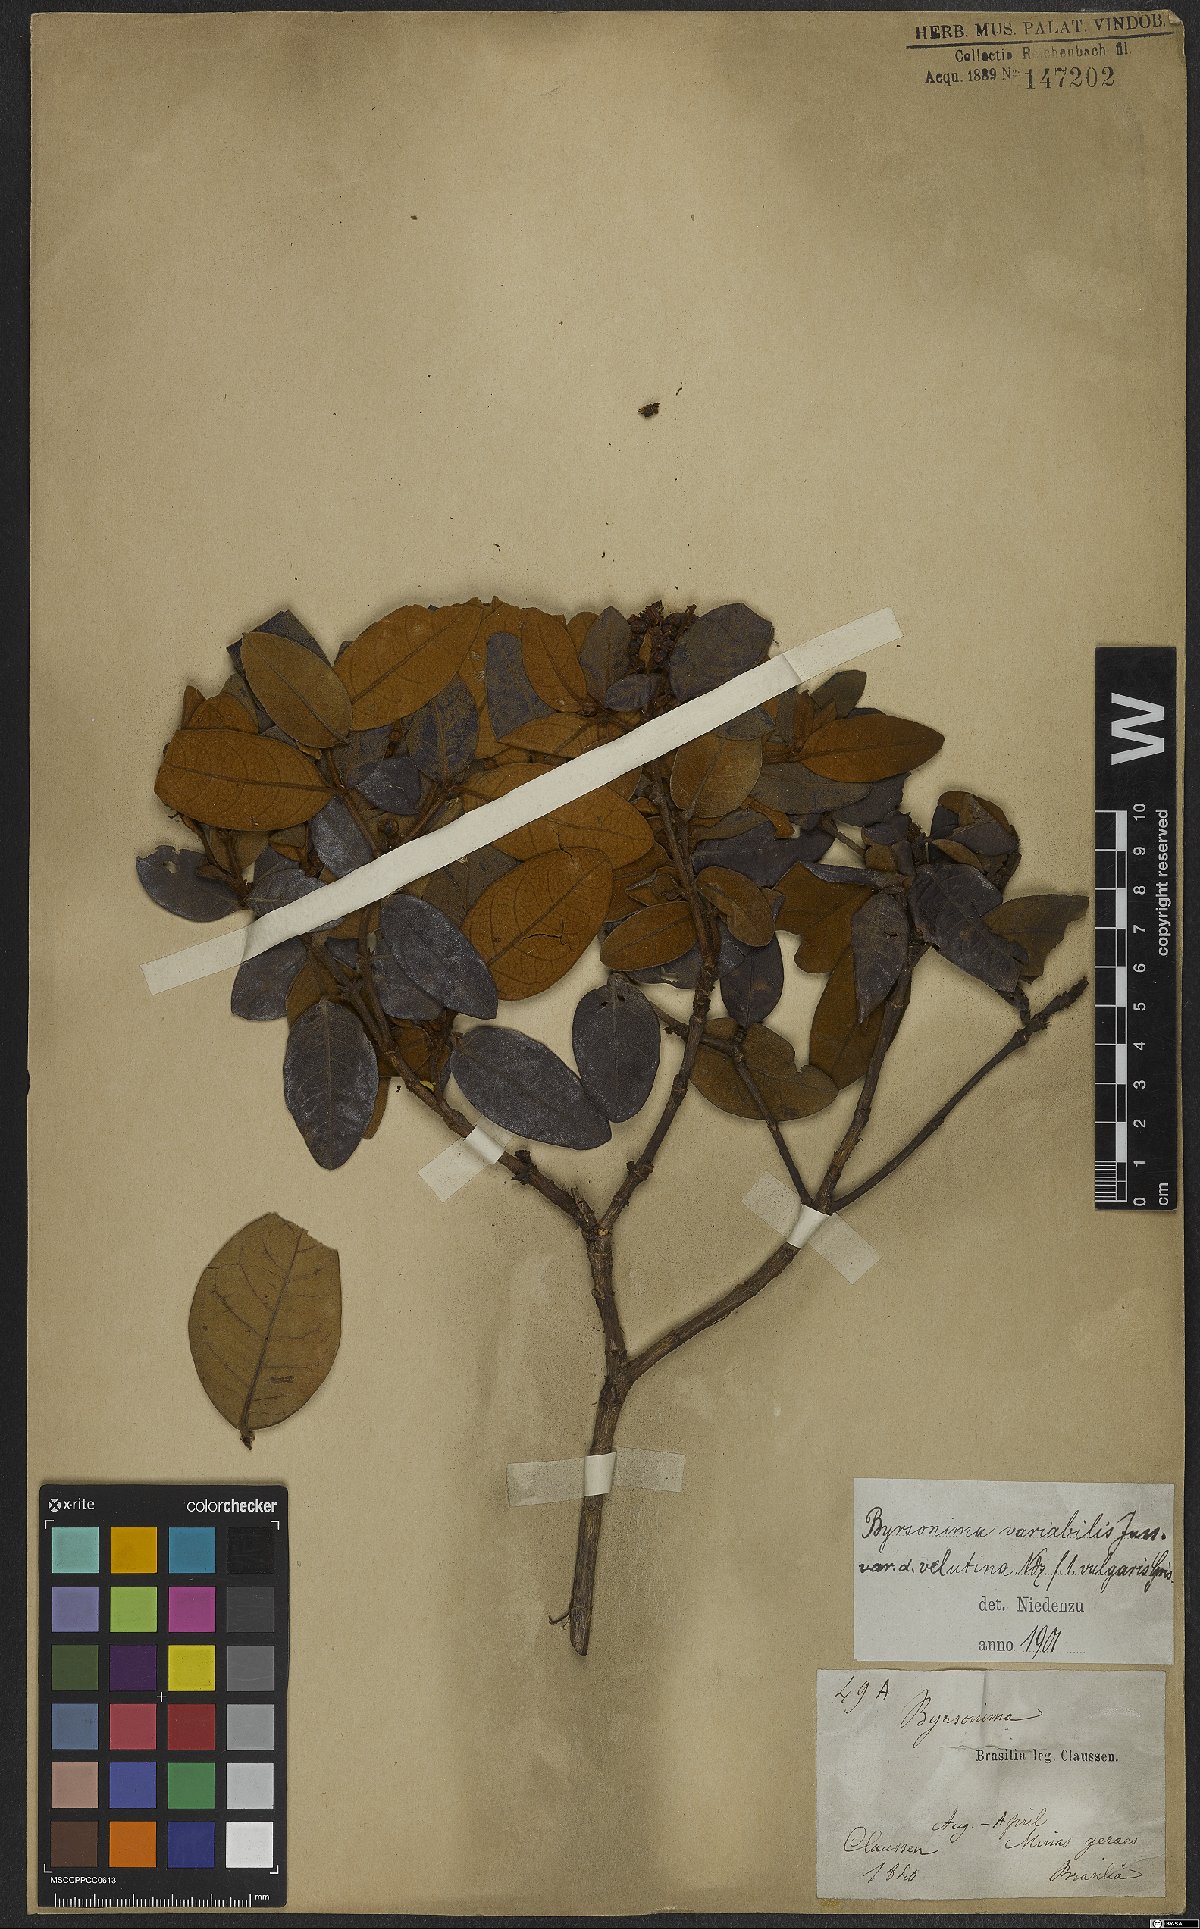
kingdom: Plantae
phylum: Tracheophyta
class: Magnoliopsida
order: Malpighiales
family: Malpighiaceae
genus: Byrsonima
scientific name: Byrsonima variabilis
